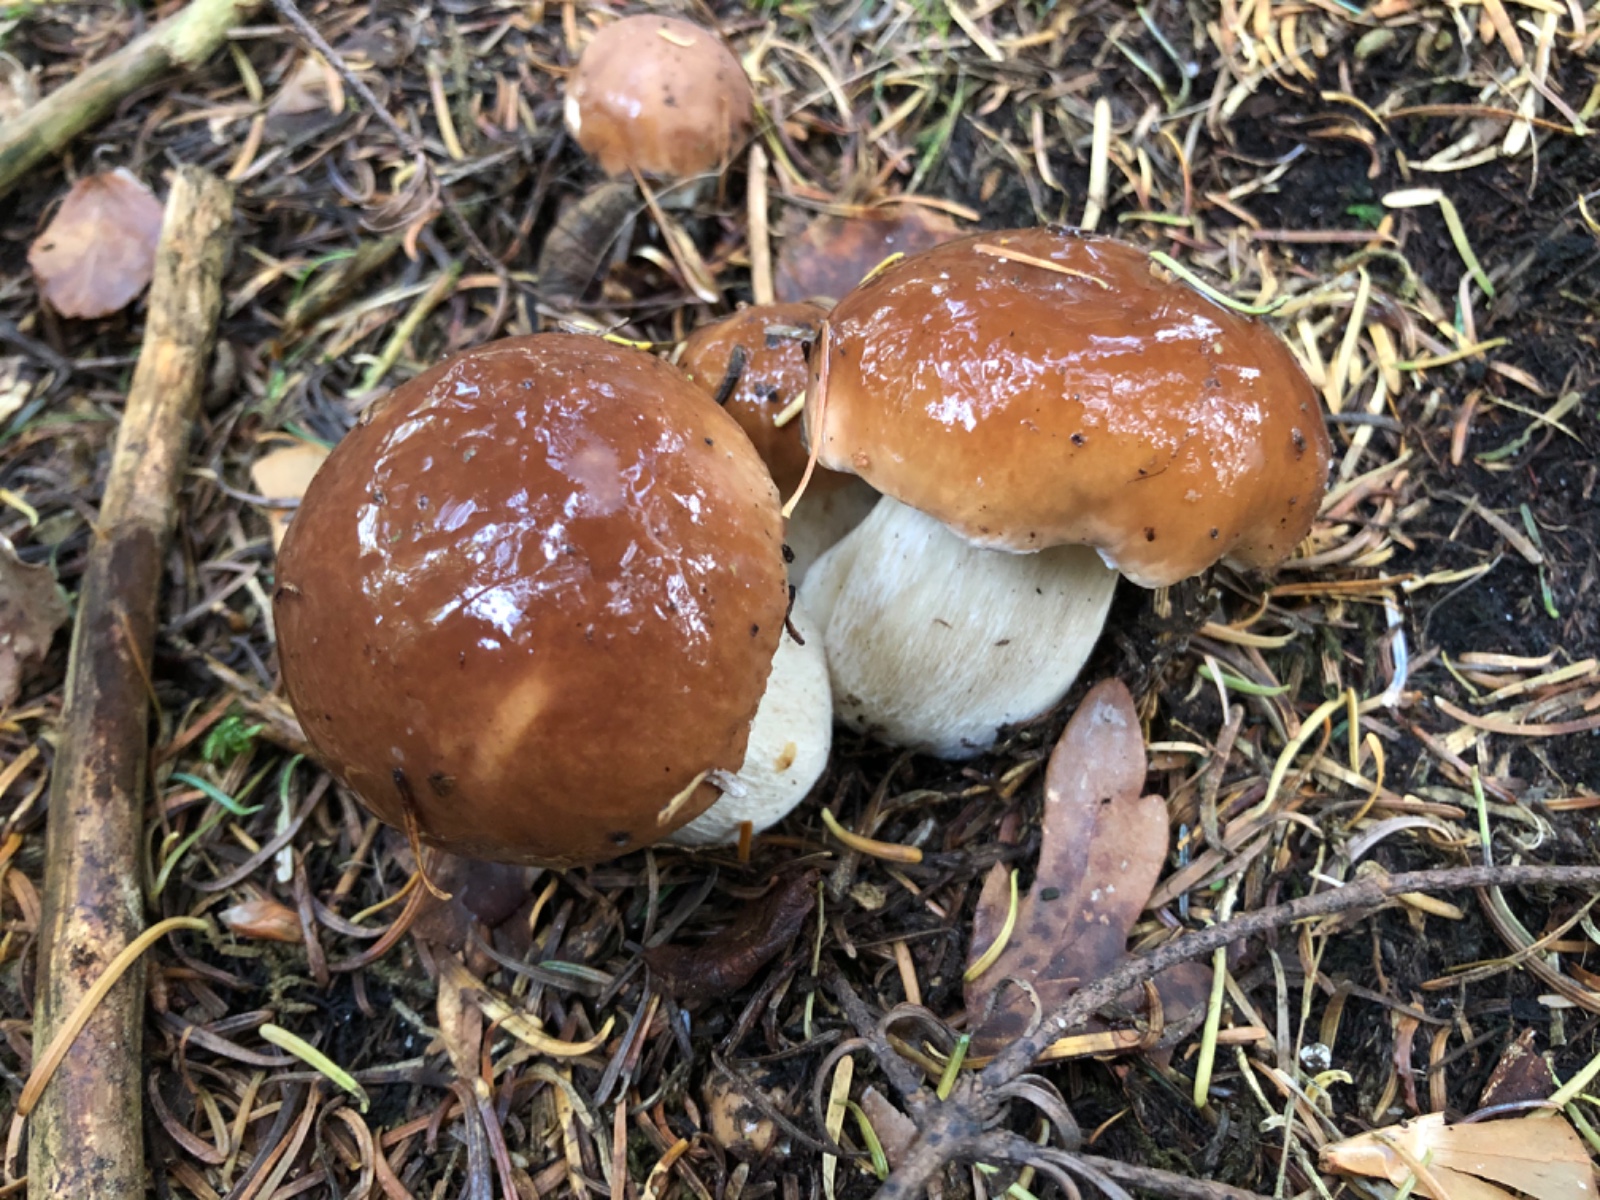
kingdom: Fungi
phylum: Basidiomycota
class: Agaricomycetes
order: Boletales
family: Boletaceae
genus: Boletus
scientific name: Boletus edulis
